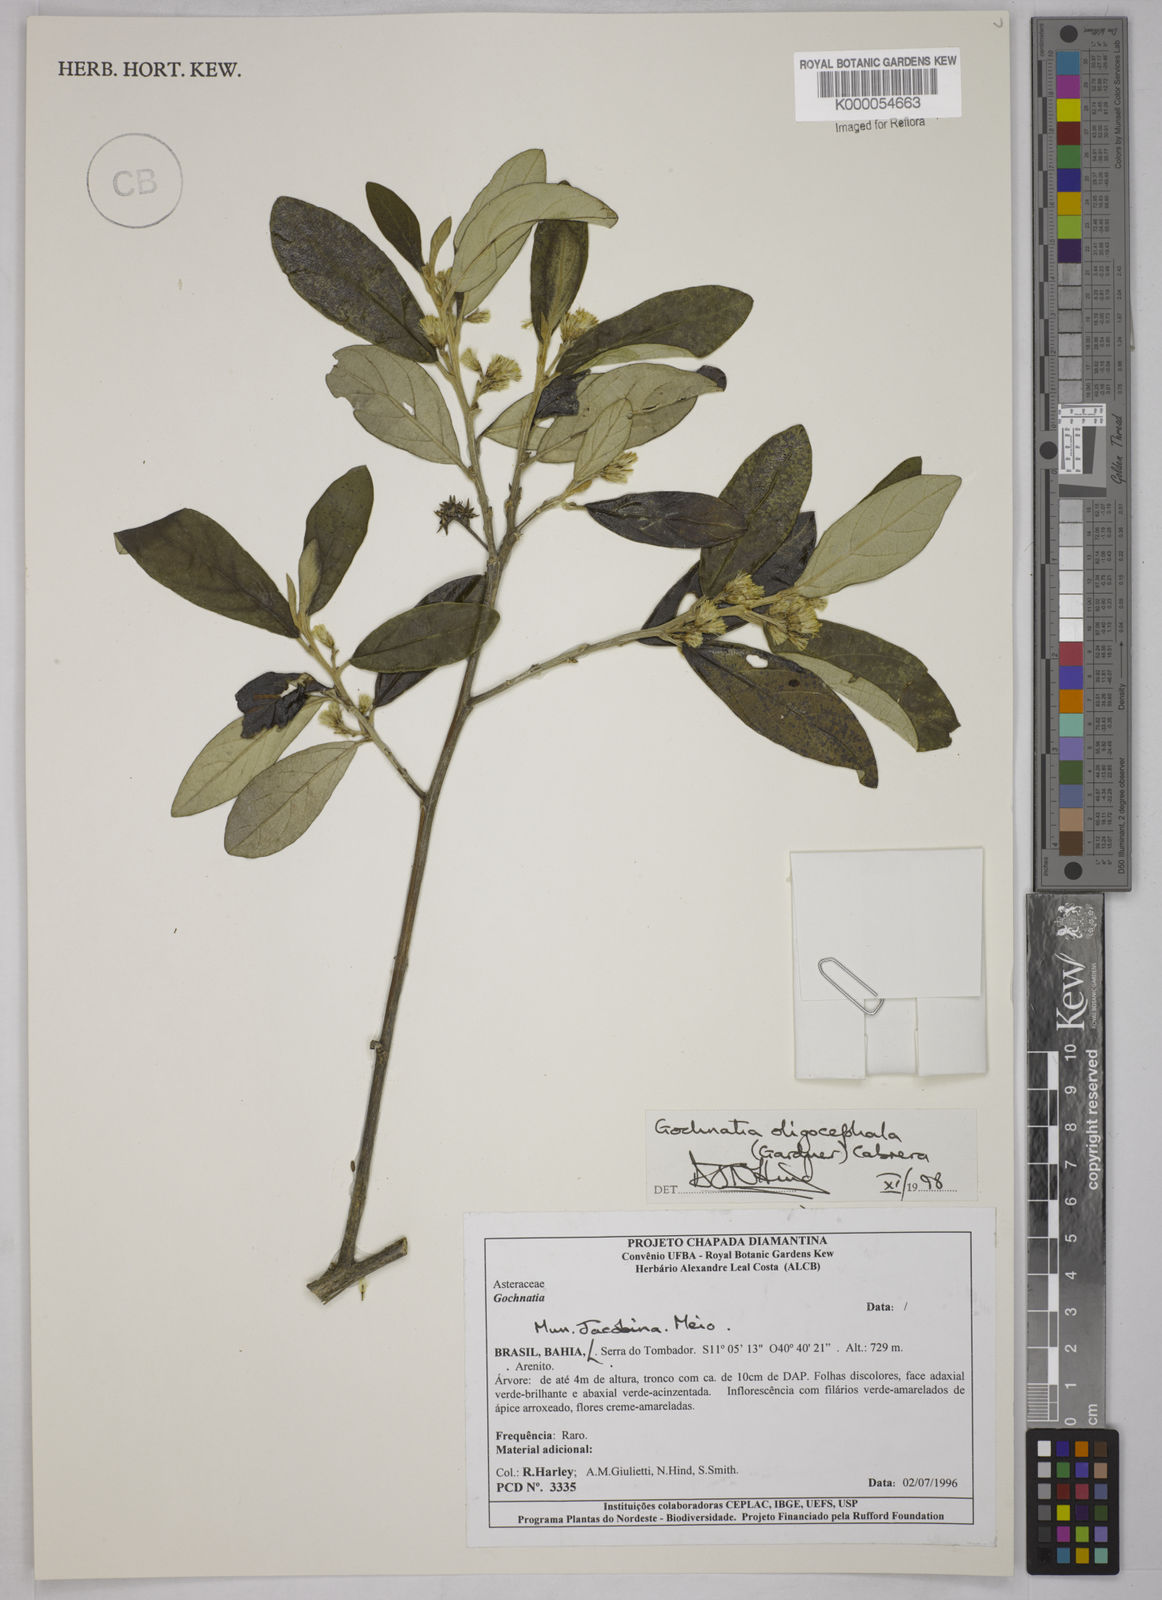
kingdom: Plantae
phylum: Tracheophyta
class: Magnoliopsida
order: Asterales
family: Asteraceae
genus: Moquiniastrum
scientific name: Moquiniastrum oligocephalum
